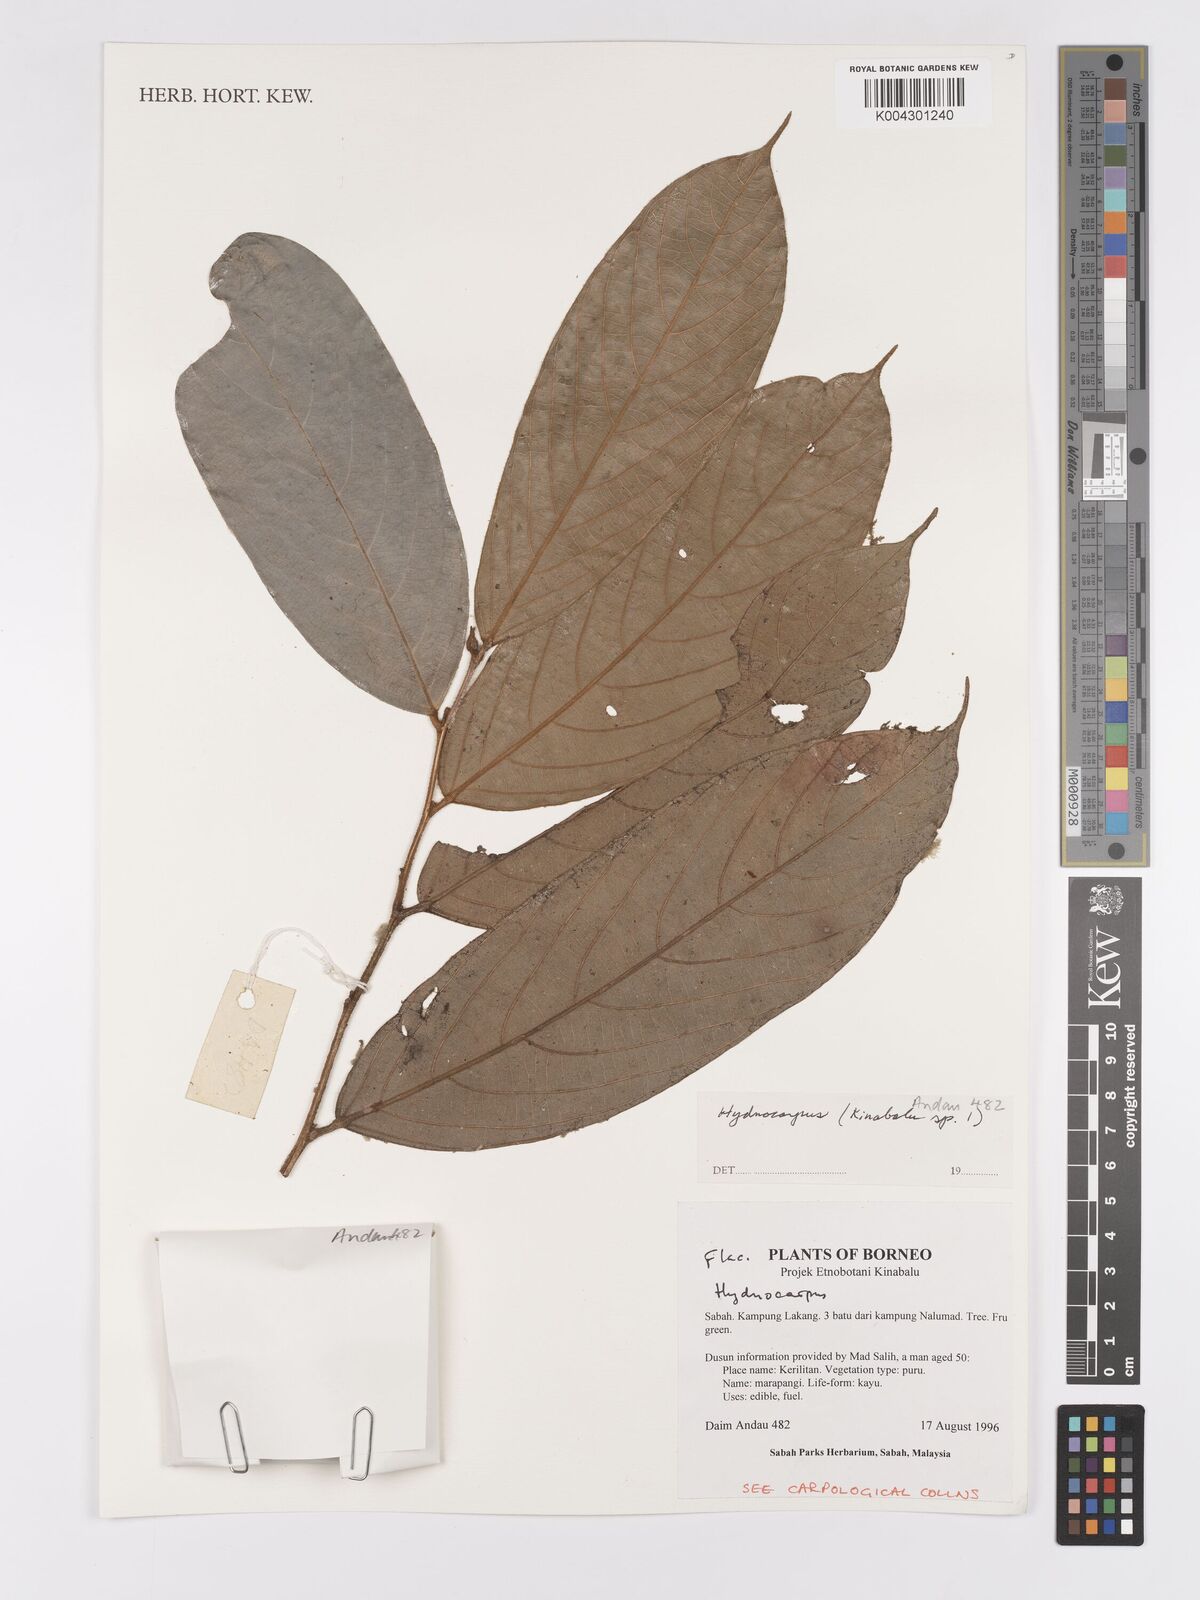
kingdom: Plantae
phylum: Tracheophyta
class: Magnoliopsida
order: Malpighiales
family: Achariaceae
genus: Hydnocarpus
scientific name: Hydnocarpus
